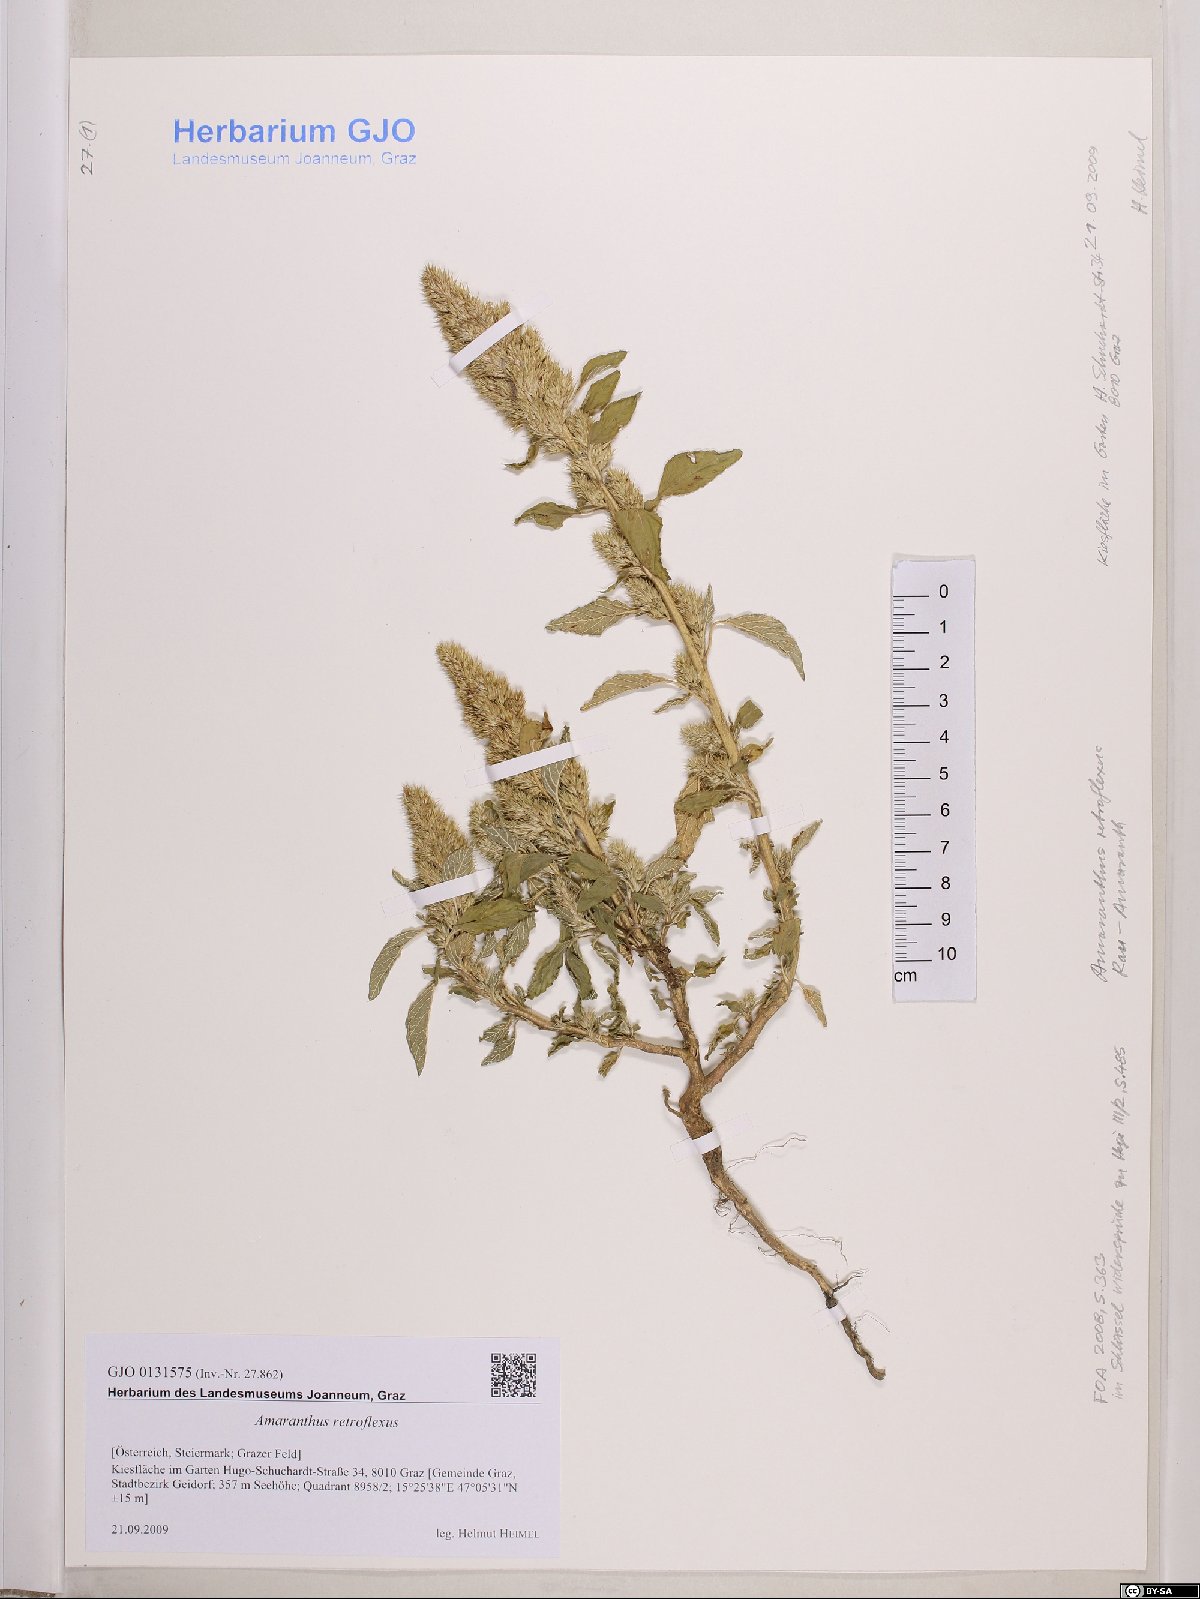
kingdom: Plantae
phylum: Tracheophyta
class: Magnoliopsida
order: Caryophyllales
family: Amaranthaceae
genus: Amaranthus
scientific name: Amaranthus retroflexus
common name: Redroot amaranth
